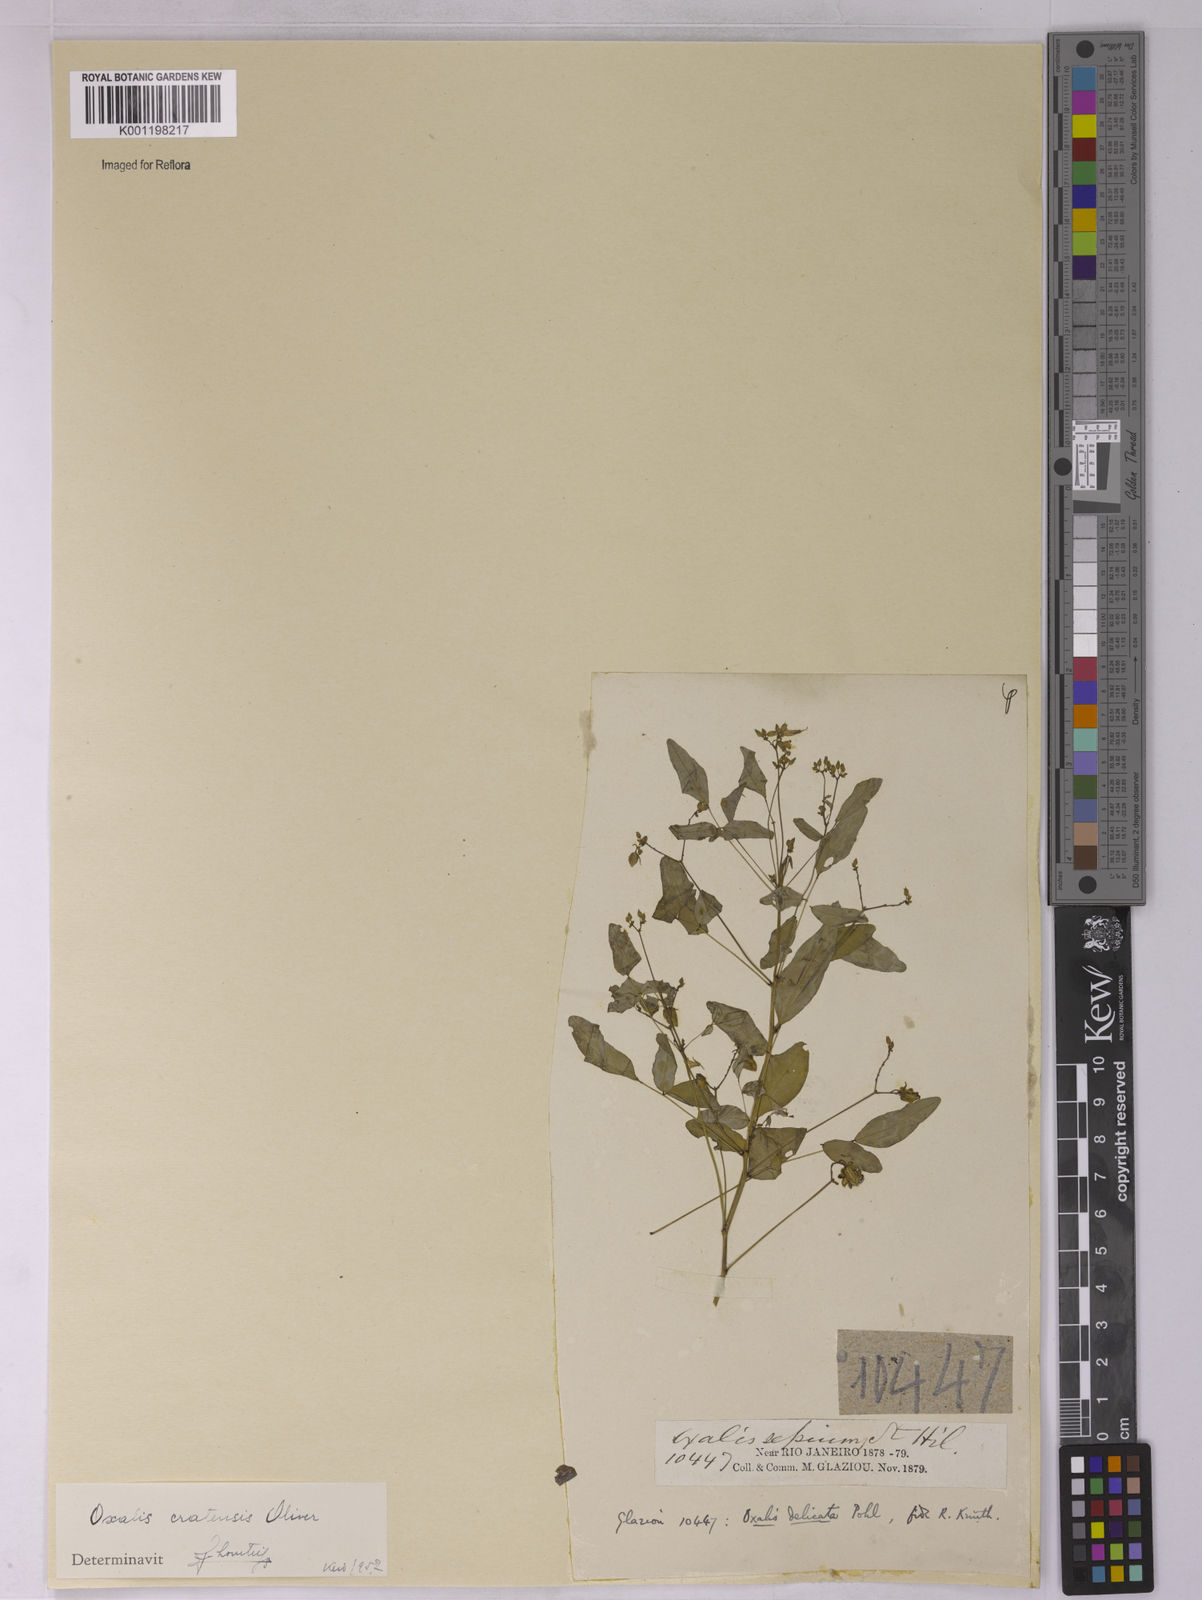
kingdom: Plantae
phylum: Tracheophyta
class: Magnoliopsida
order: Oxalidales
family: Oxalidaceae
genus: Oxalis
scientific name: Oxalis cratensis
